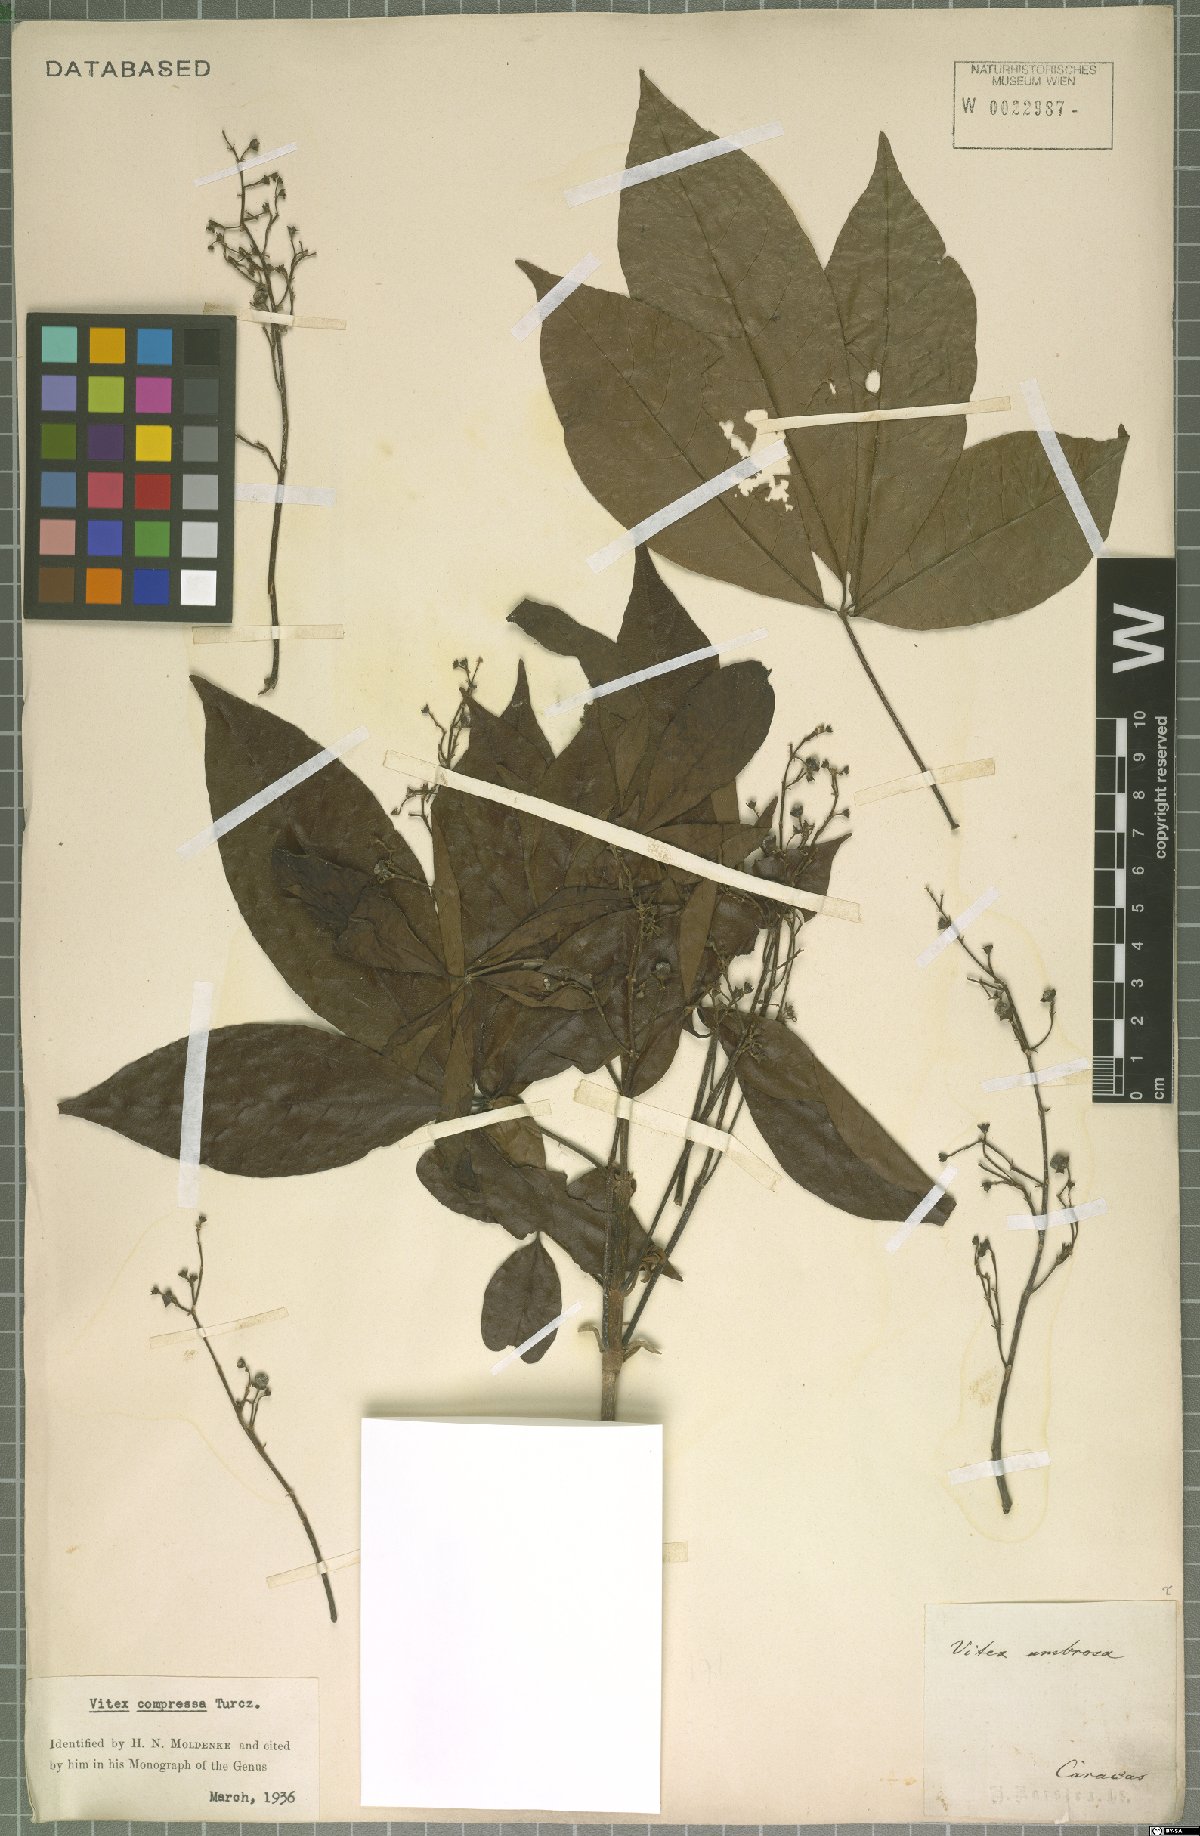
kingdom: Plantae
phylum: Tracheophyta
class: Magnoliopsida
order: Lamiales
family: Lamiaceae
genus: Vitex
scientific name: Vitex compressa
